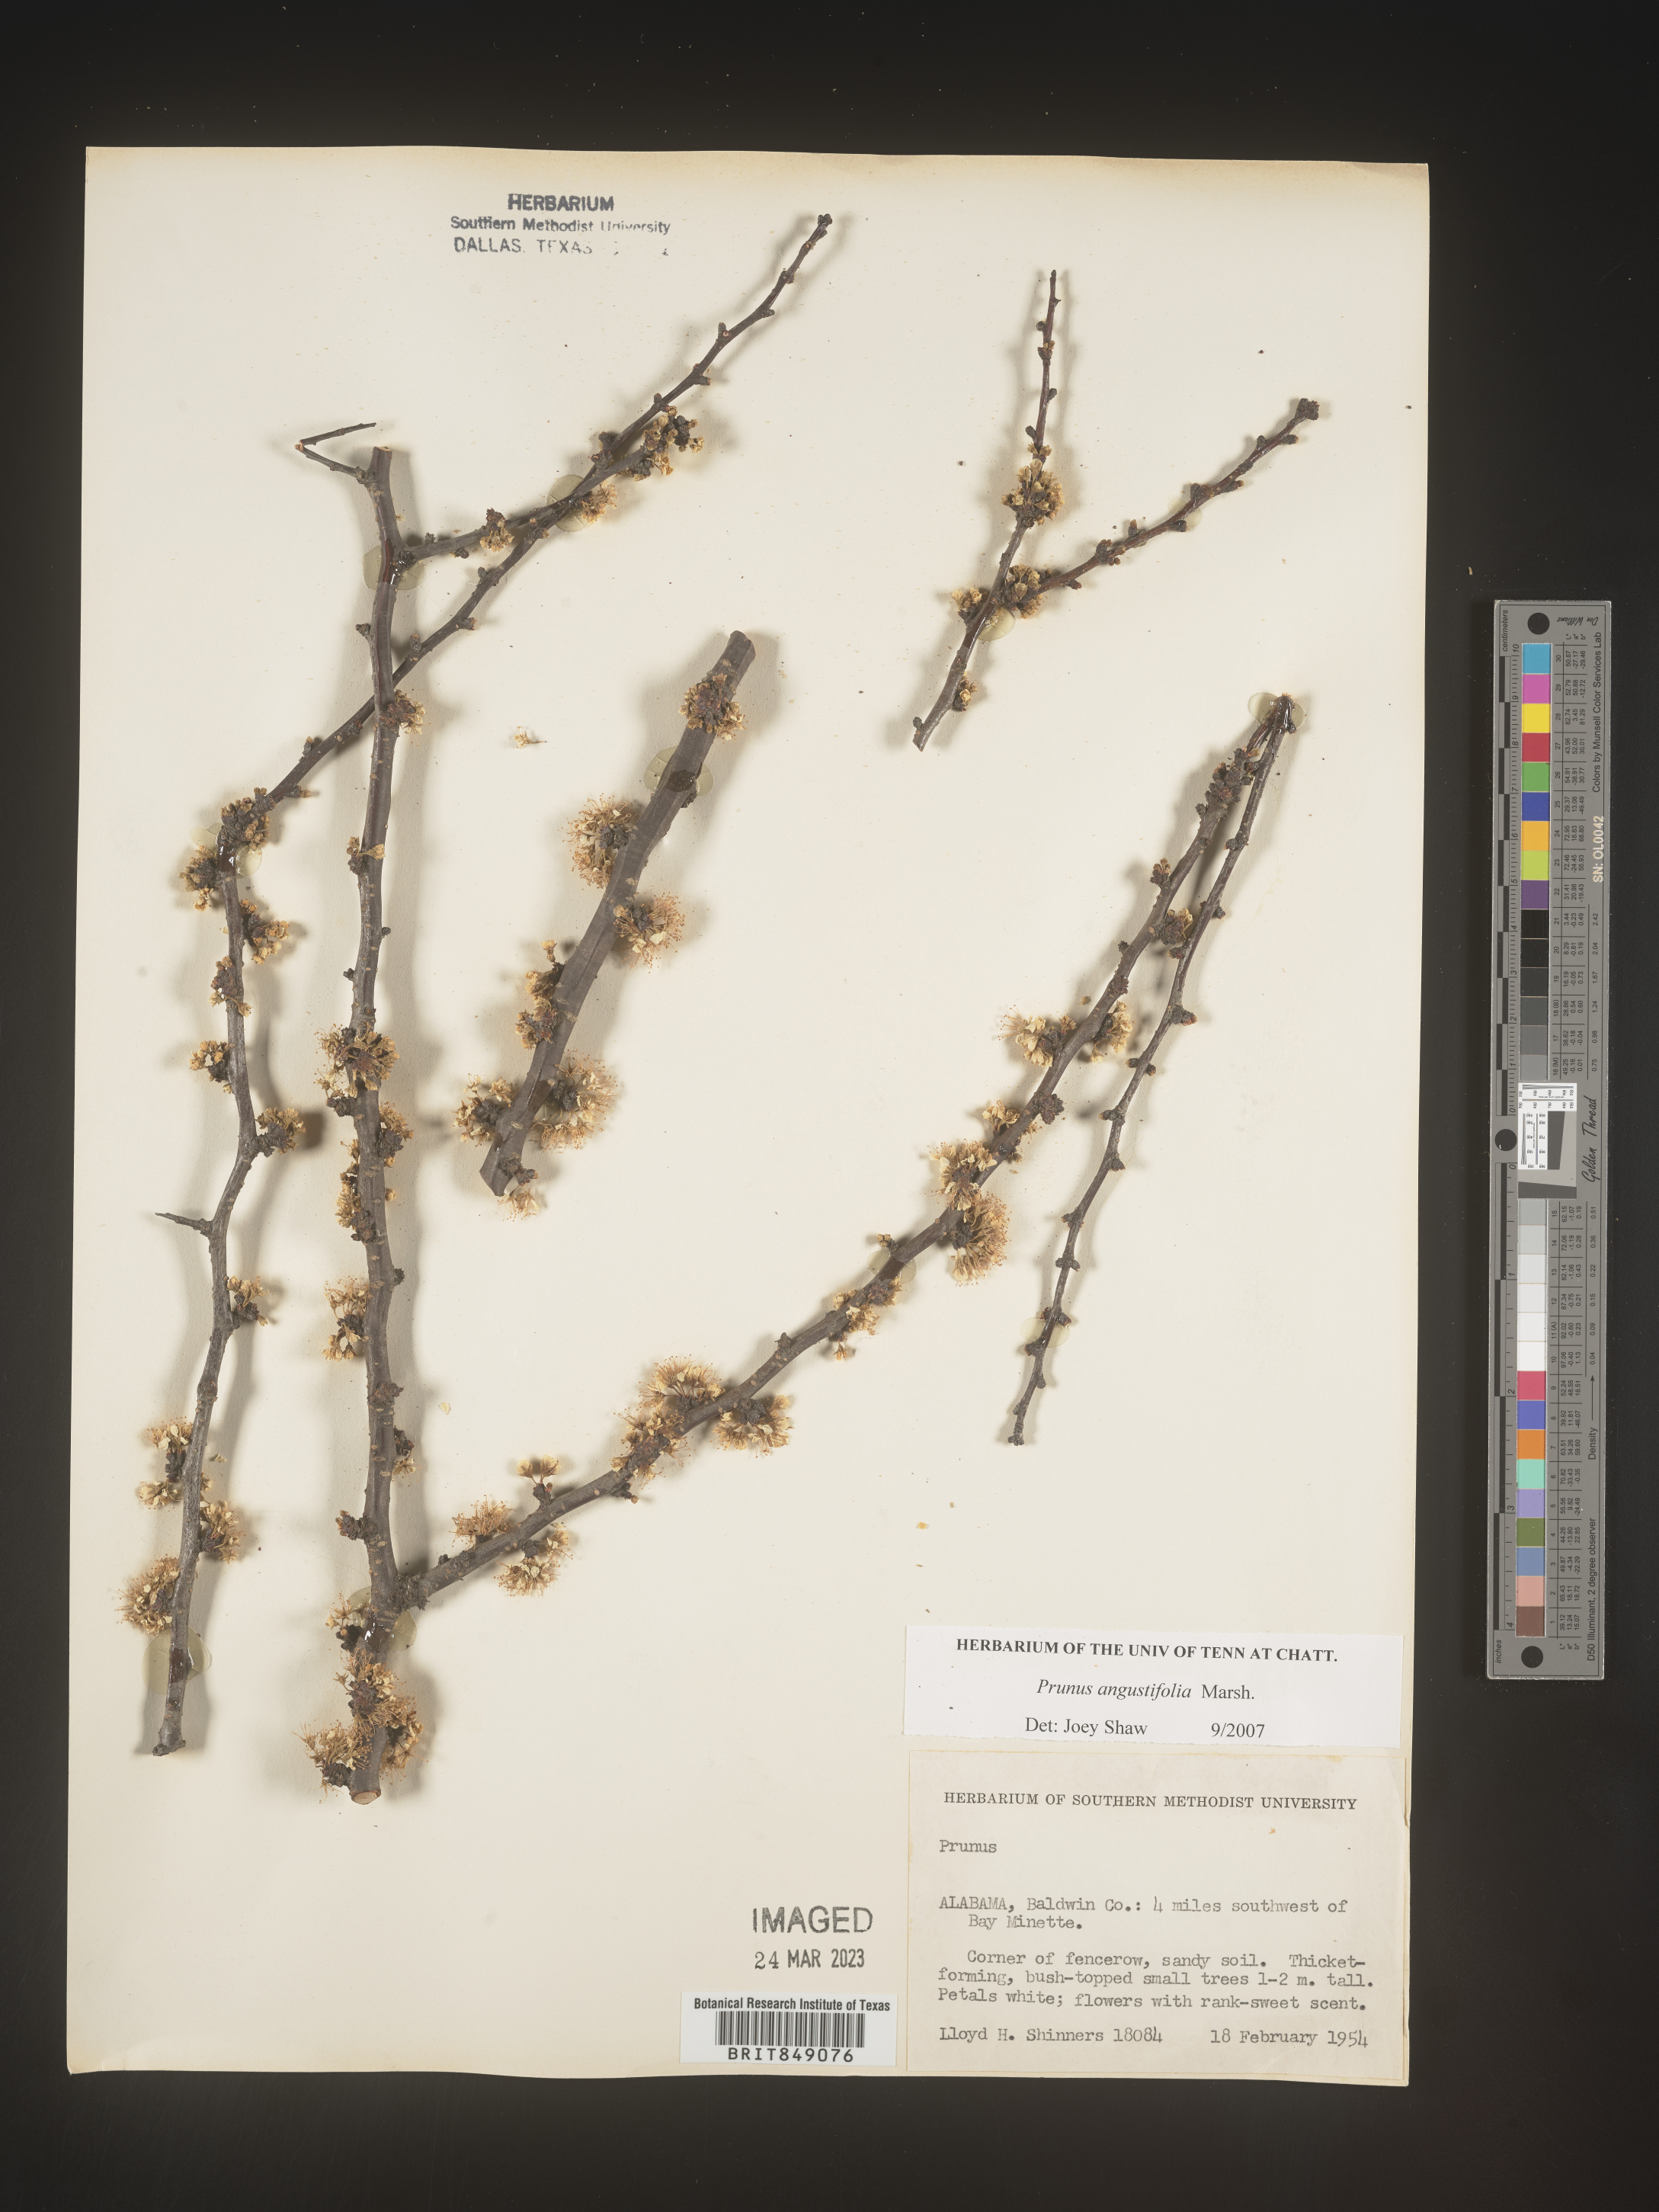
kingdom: Plantae
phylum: Tracheophyta
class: Magnoliopsida
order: Rosales
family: Rosaceae
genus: Prunus
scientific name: Prunus angustifolia
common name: Cherokee plum
